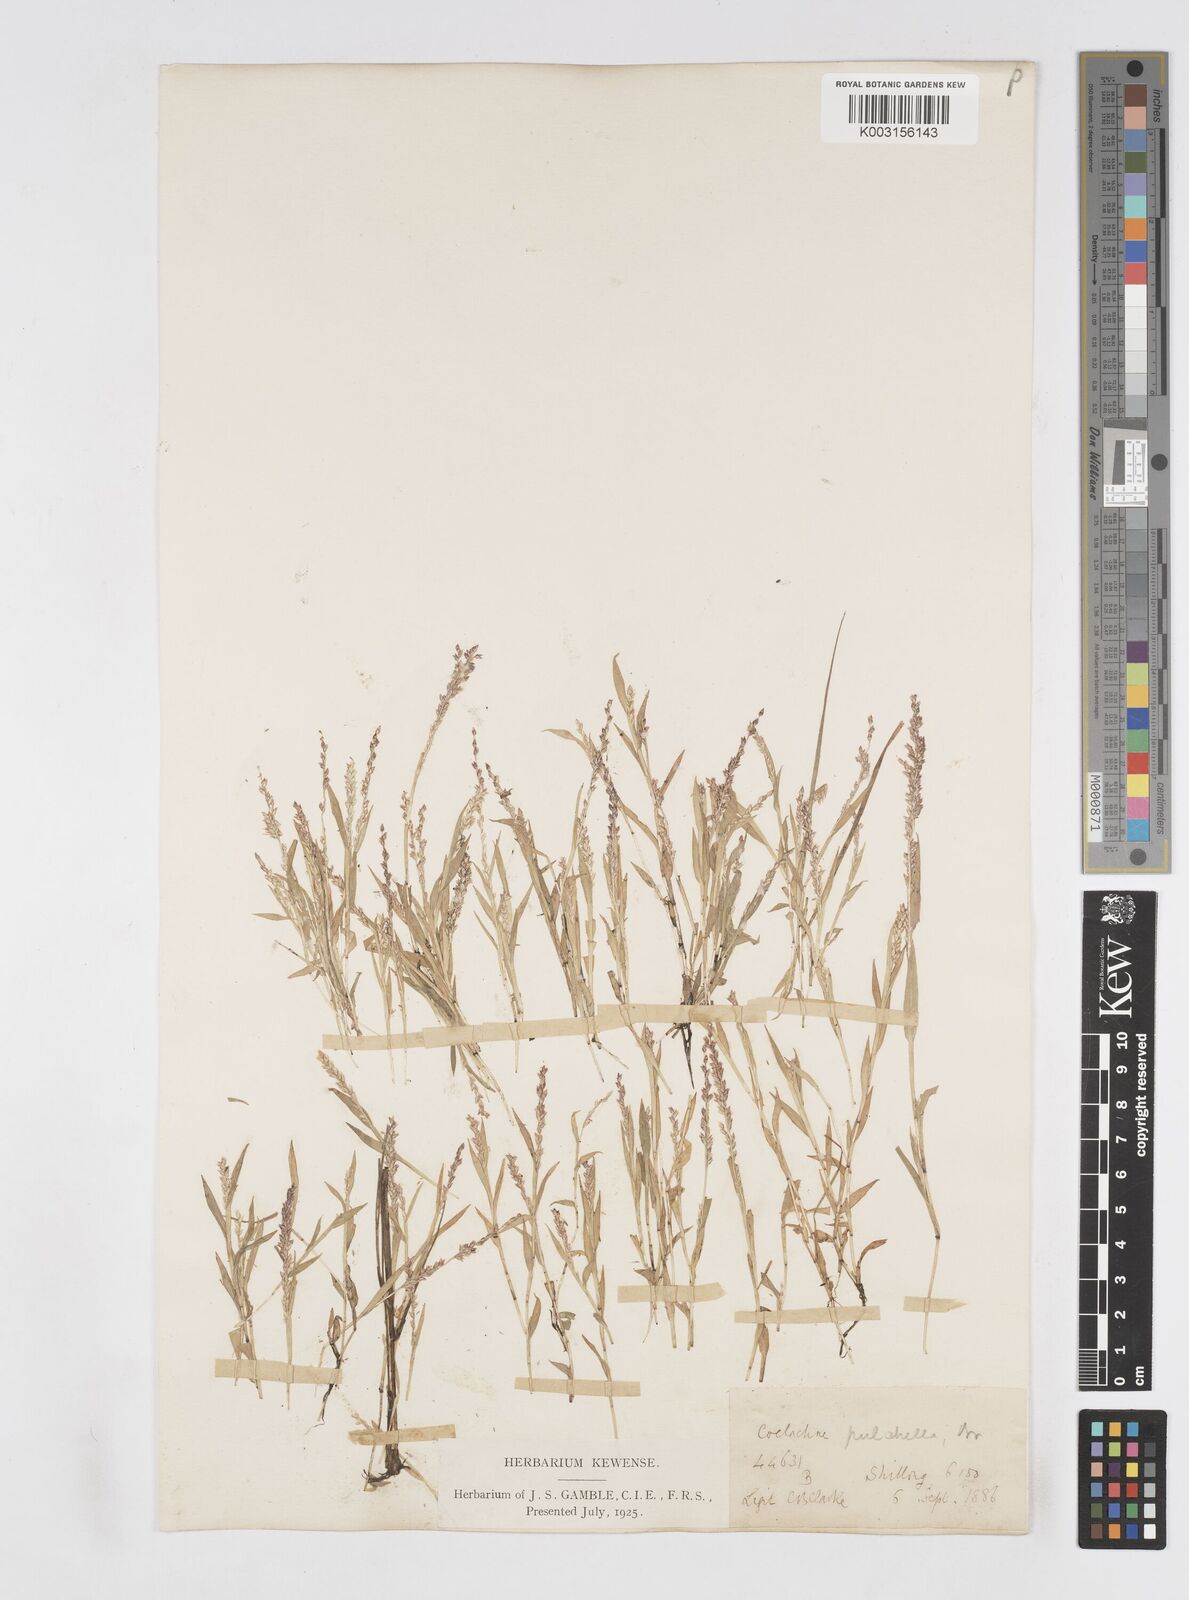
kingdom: Plantae
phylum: Tracheophyta
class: Liliopsida
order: Poales
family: Poaceae
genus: Coelachne
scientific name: Coelachne simpliciuscula
